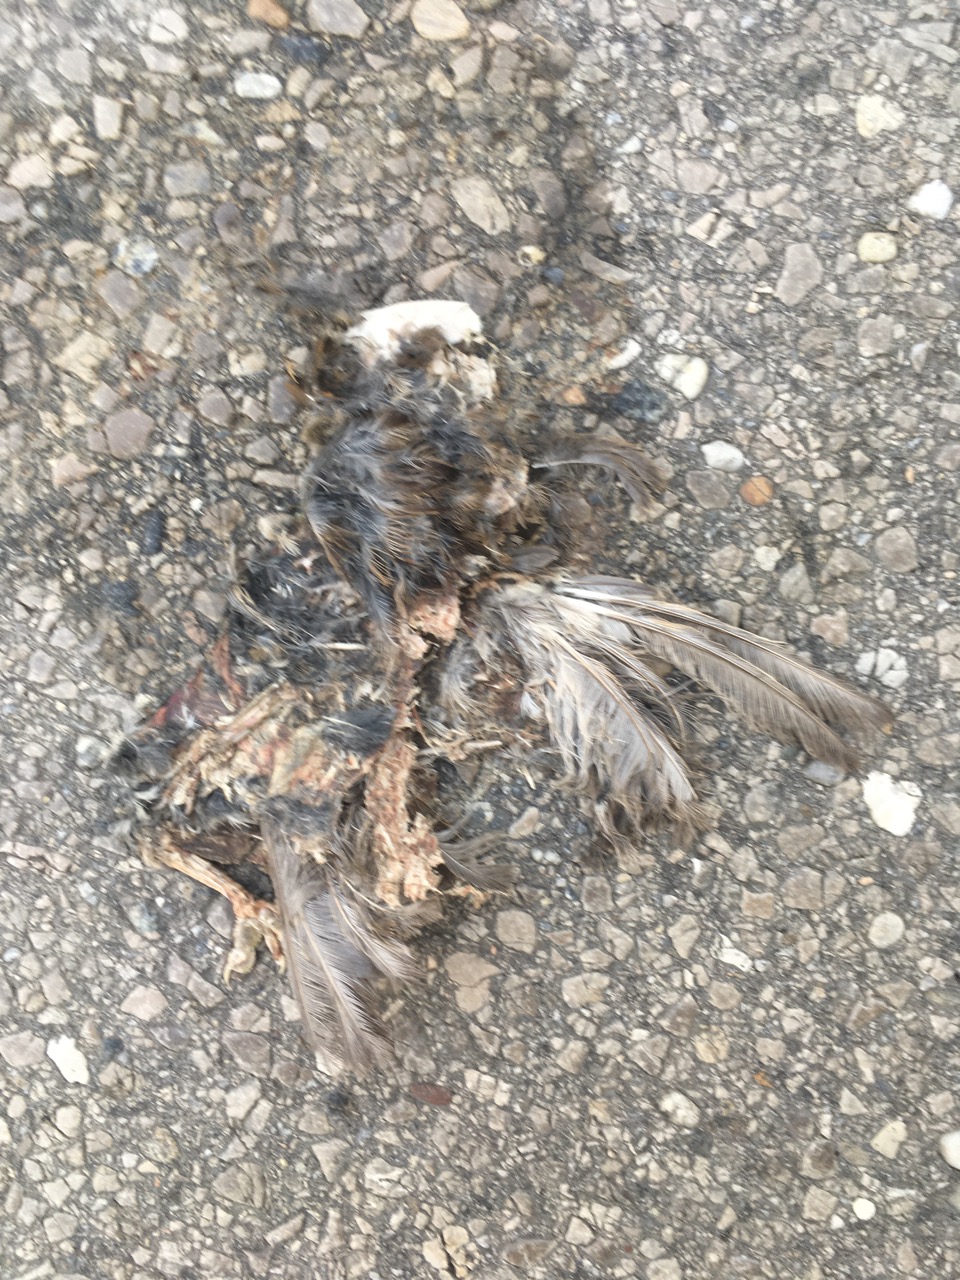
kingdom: Animalia
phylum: Chordata
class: Aves
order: Passeriformes
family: Passeridae
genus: Passer
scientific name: Passer
